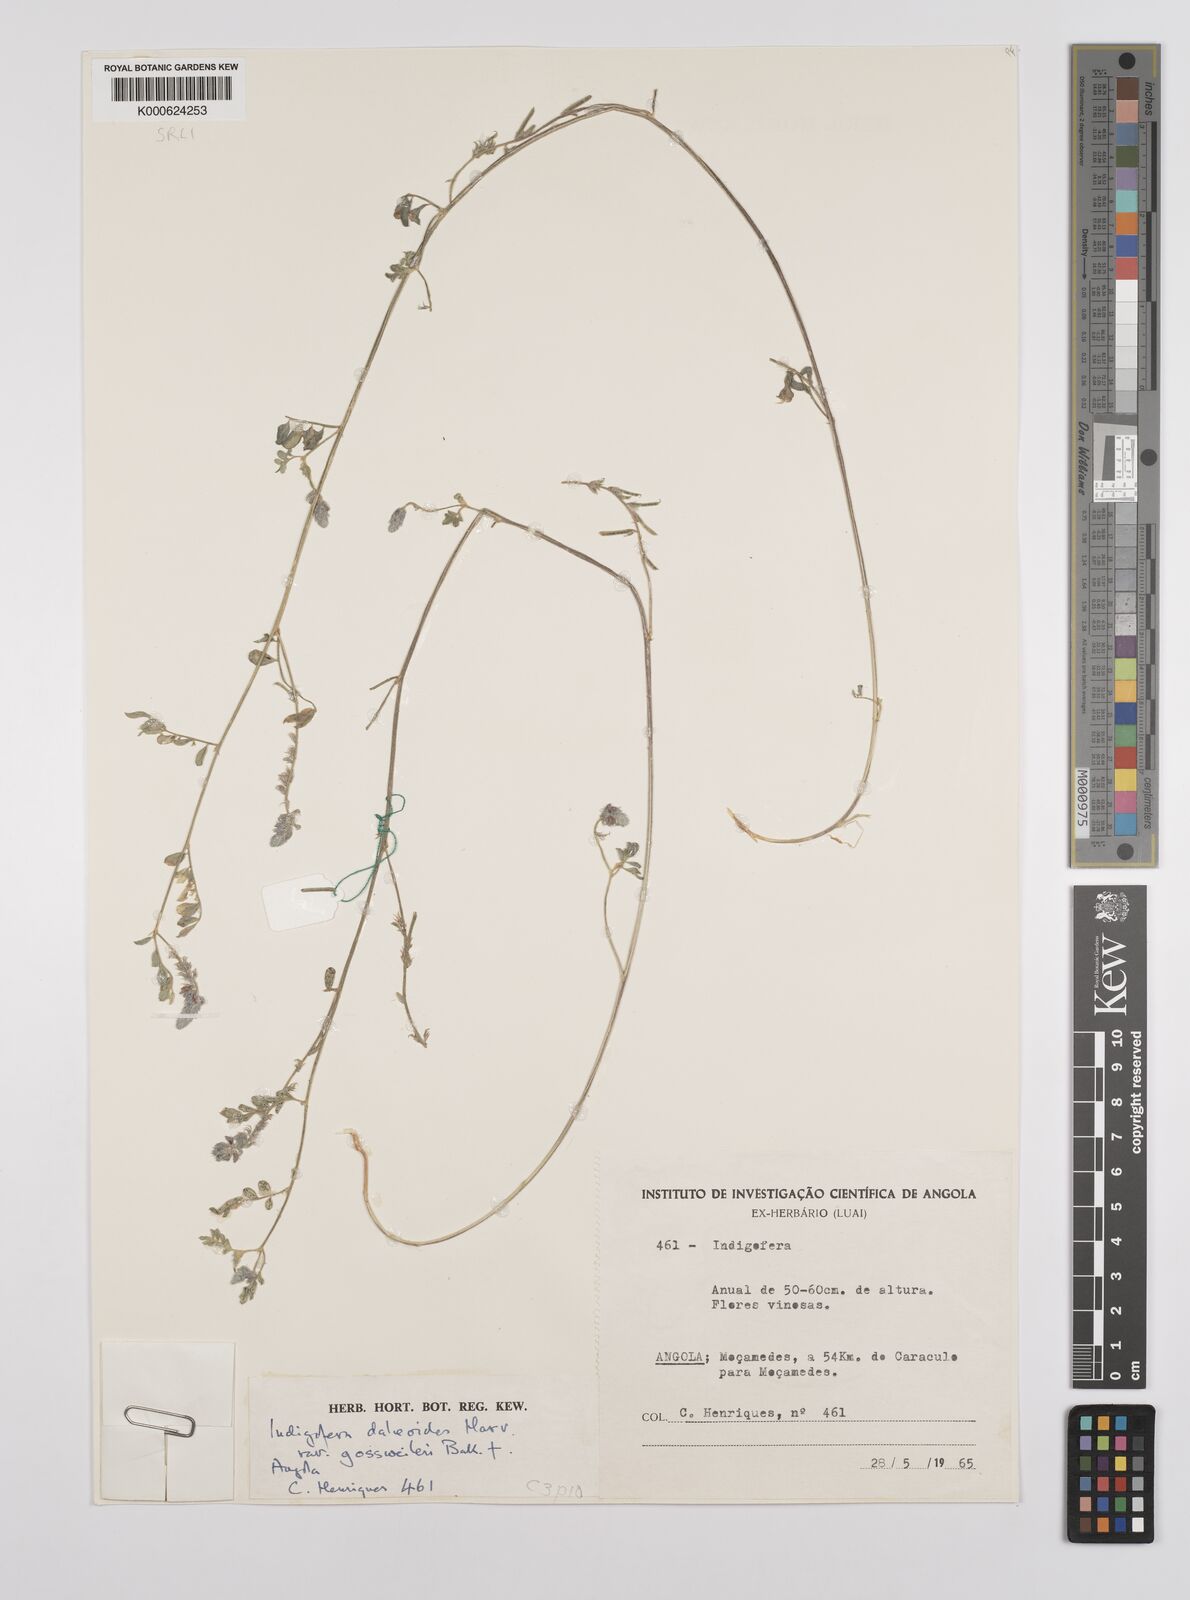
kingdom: Plantae
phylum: Tracheophyta
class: Magnoliopsida
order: Fabales
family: Fabaceae
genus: Indigofera
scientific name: Indigofera
